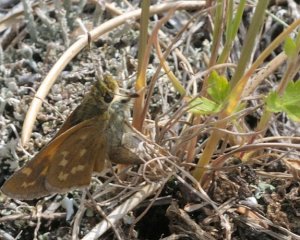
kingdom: Animalia
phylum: Arthropoda
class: Insecta
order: Lepidoptera
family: Hesperiidae
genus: Hesperia
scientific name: Hesperia sassacus
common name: Sassacus Skipper
